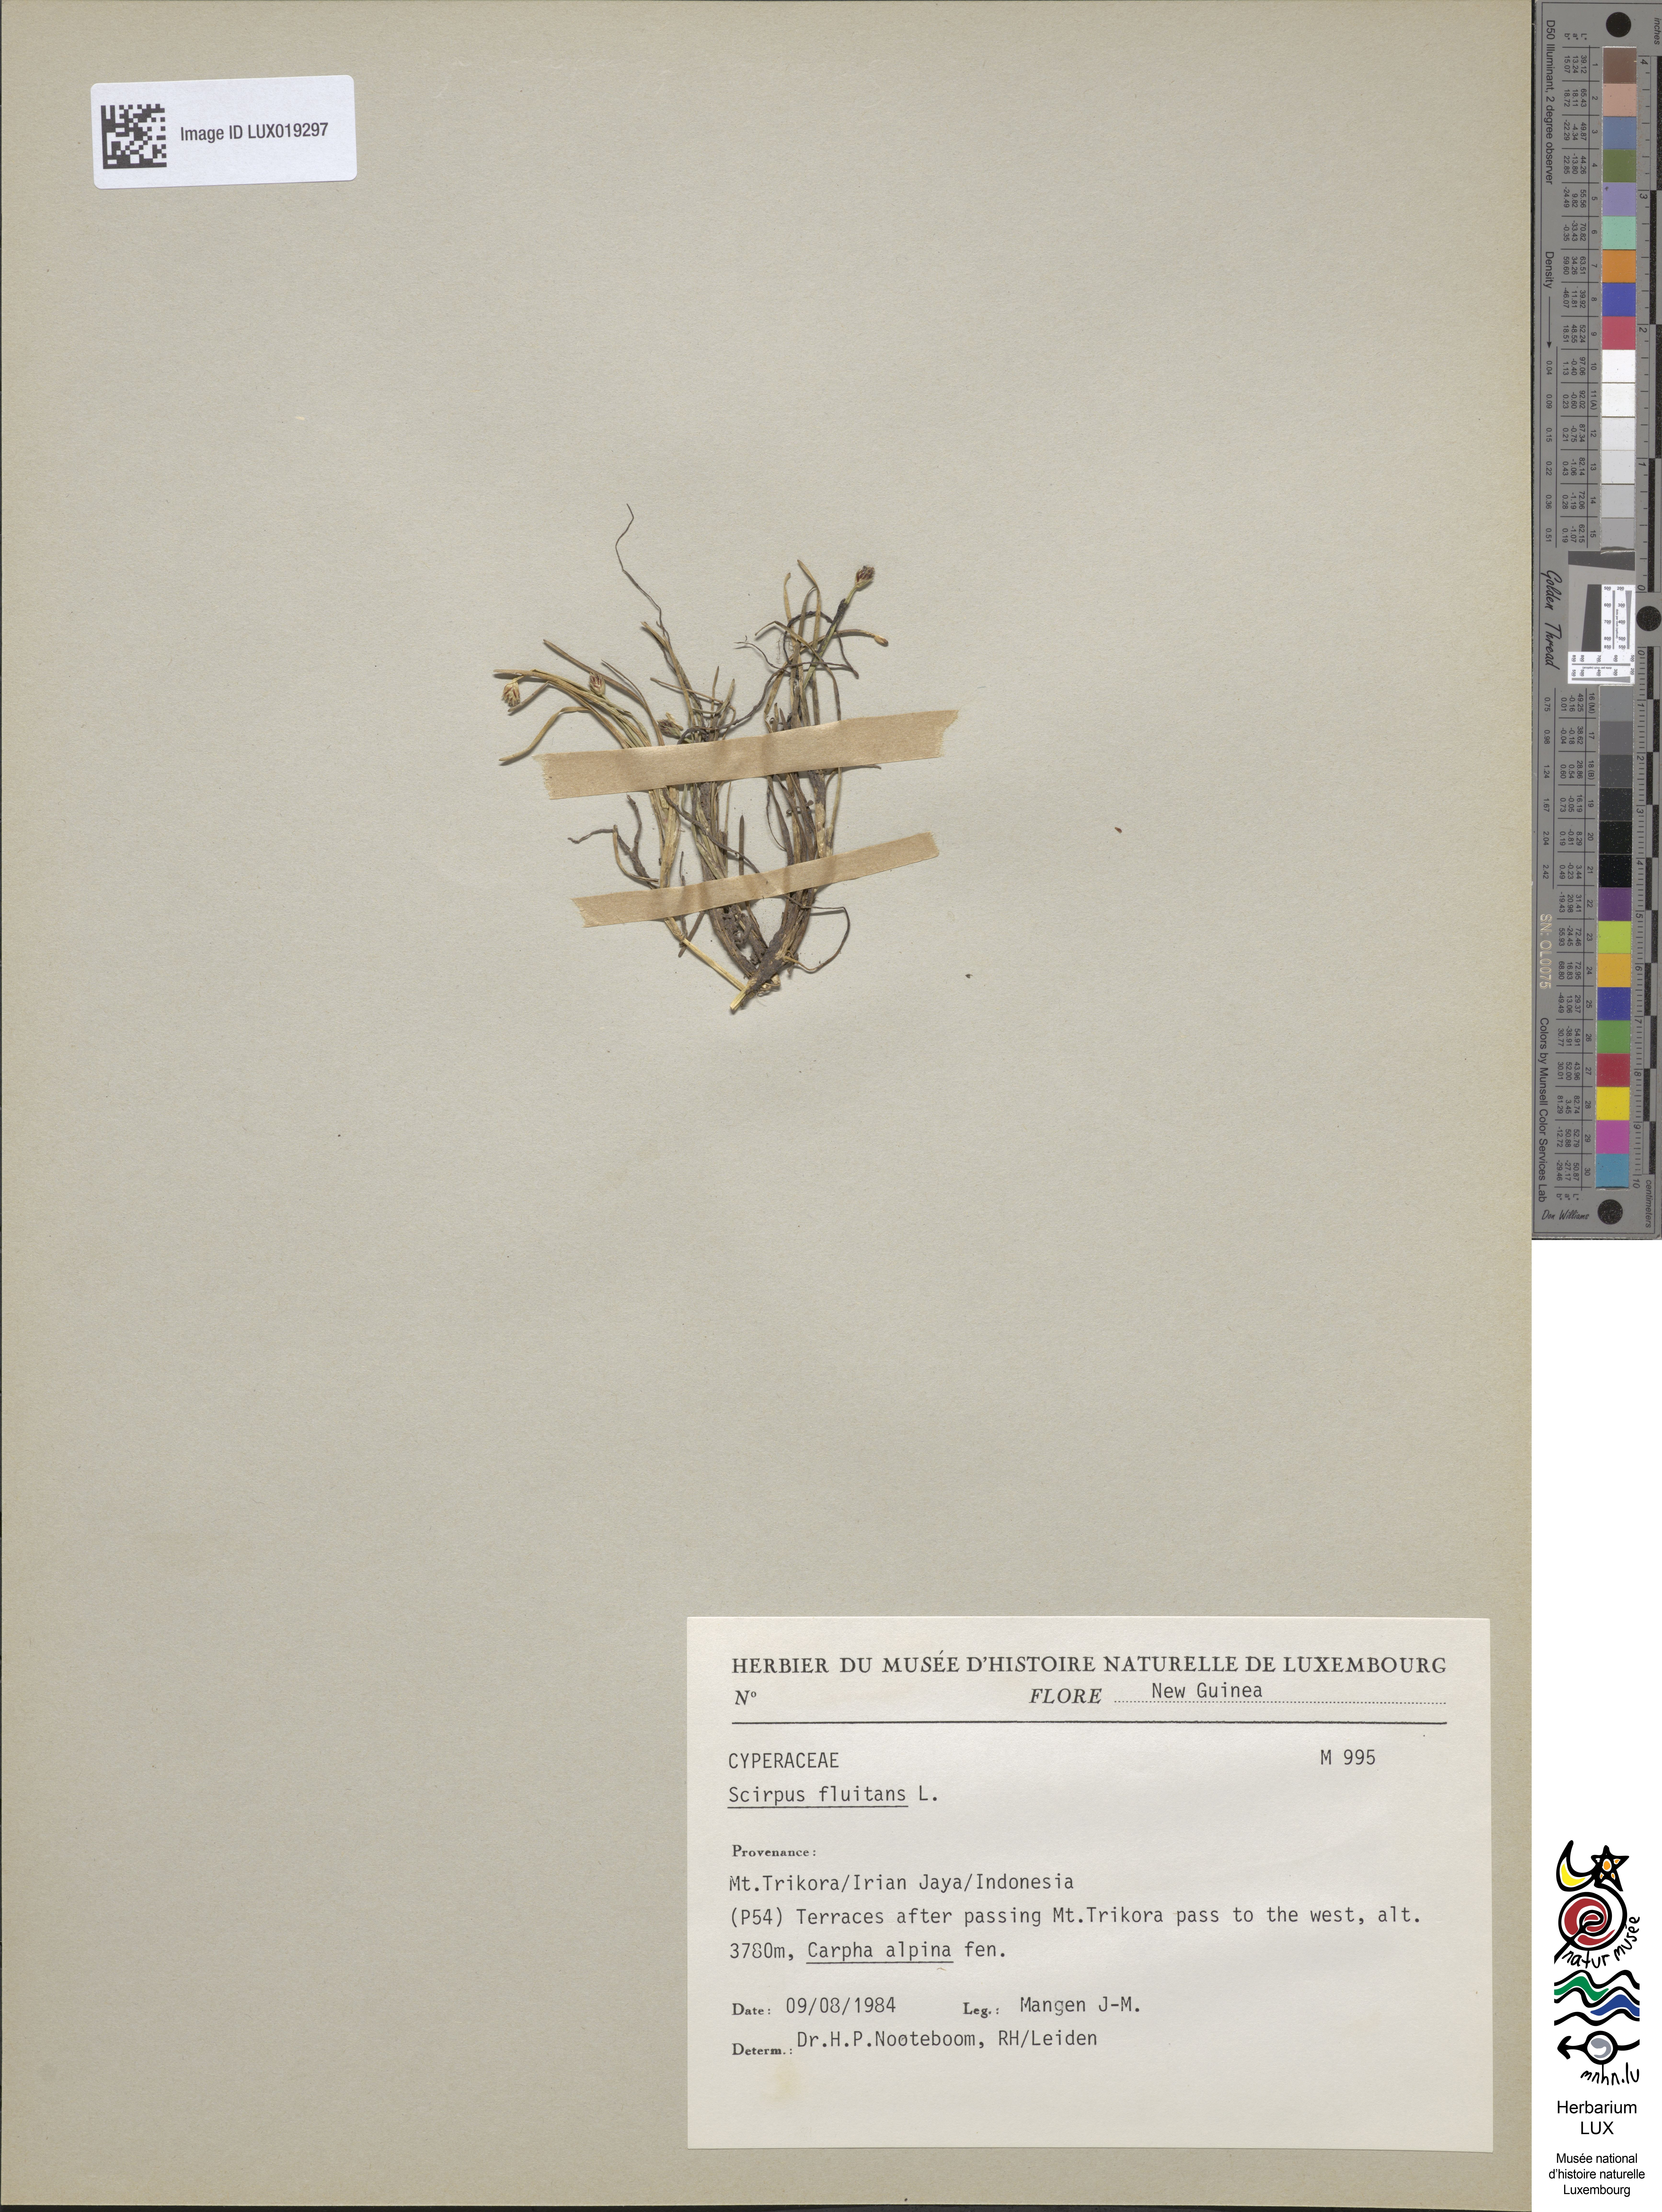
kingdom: Plantae
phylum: Tracheophyta
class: Liliopsida
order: Poales
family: Cyperaceae
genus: Isolepis
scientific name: Isolepis fluitans
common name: Floating club-rush
